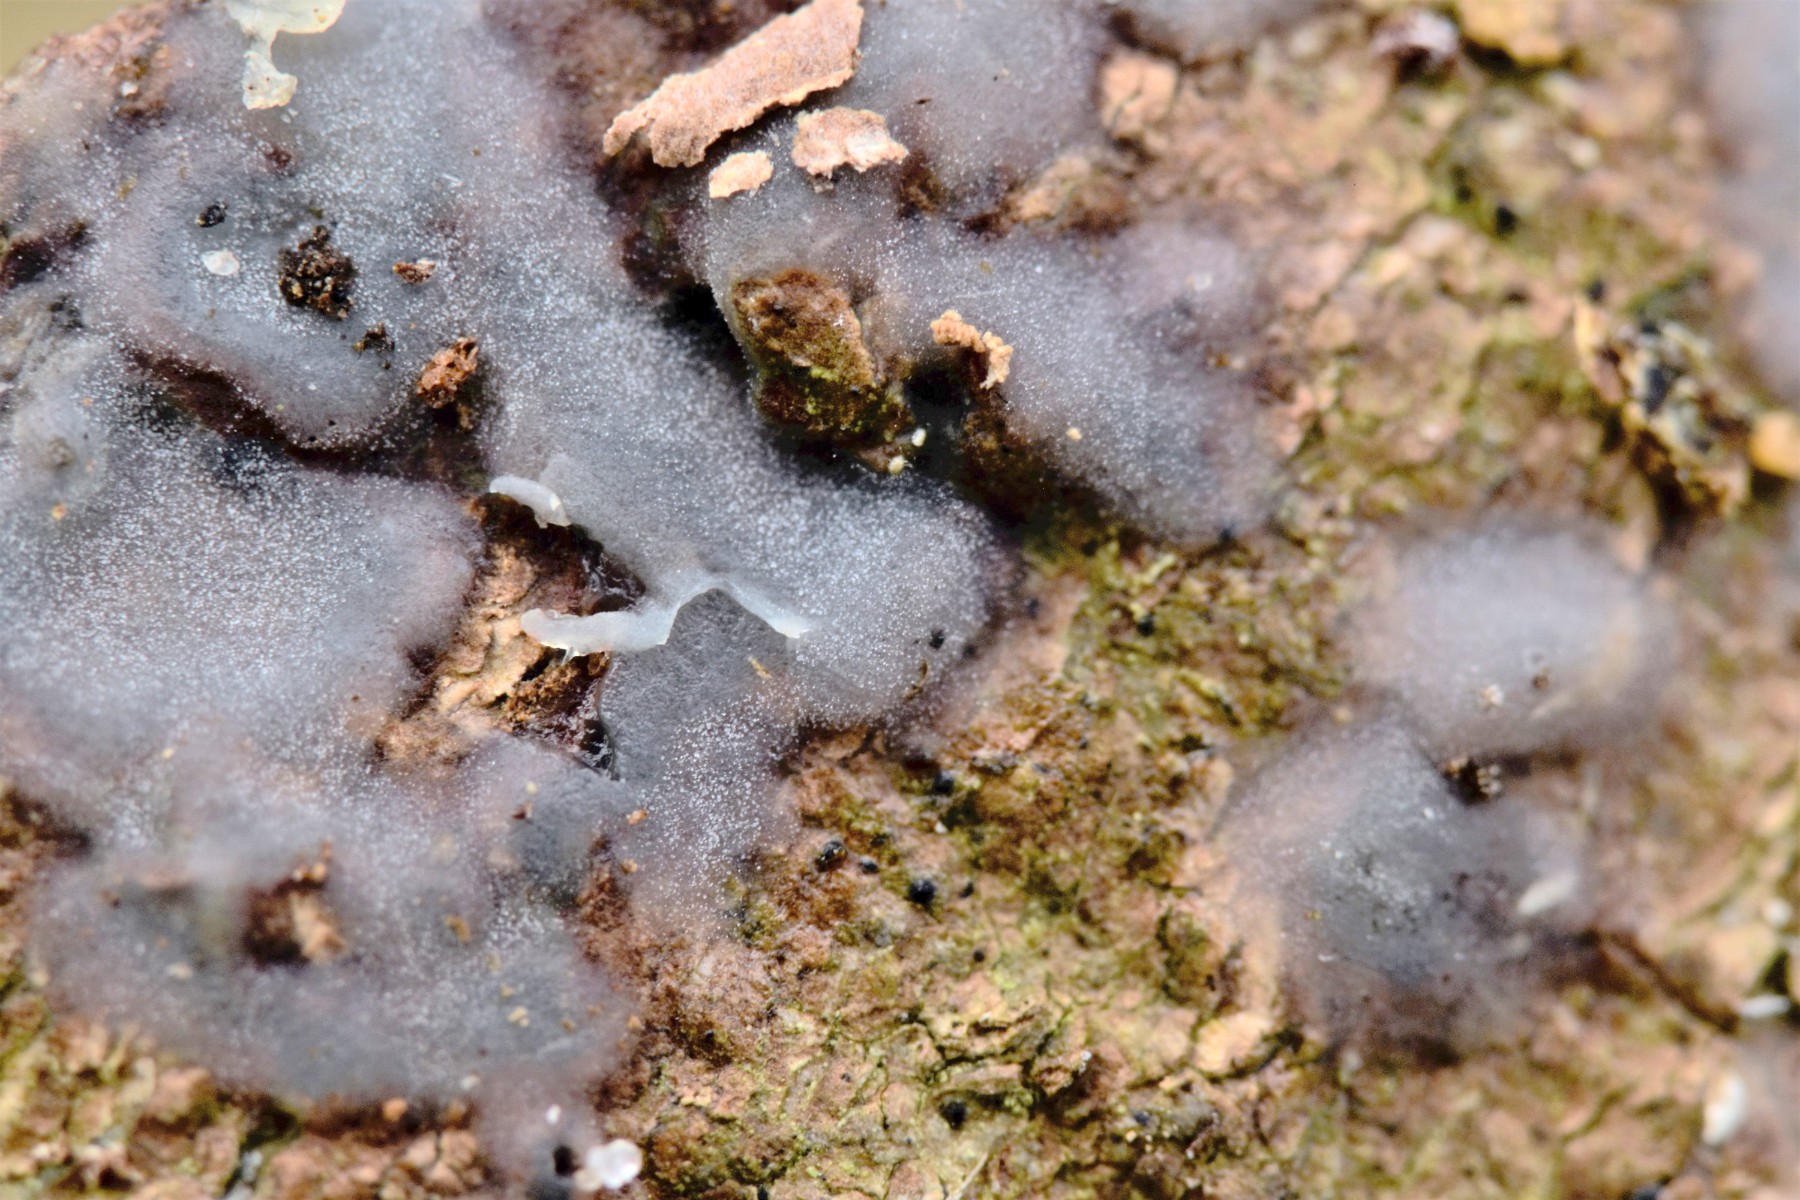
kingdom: Fungi
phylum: Basidiomycota
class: Agaricomycetes
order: Sebacinales
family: Sebacinaceae
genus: Sebacina
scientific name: Sebacina grisea
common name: blågrå bævrehinde
